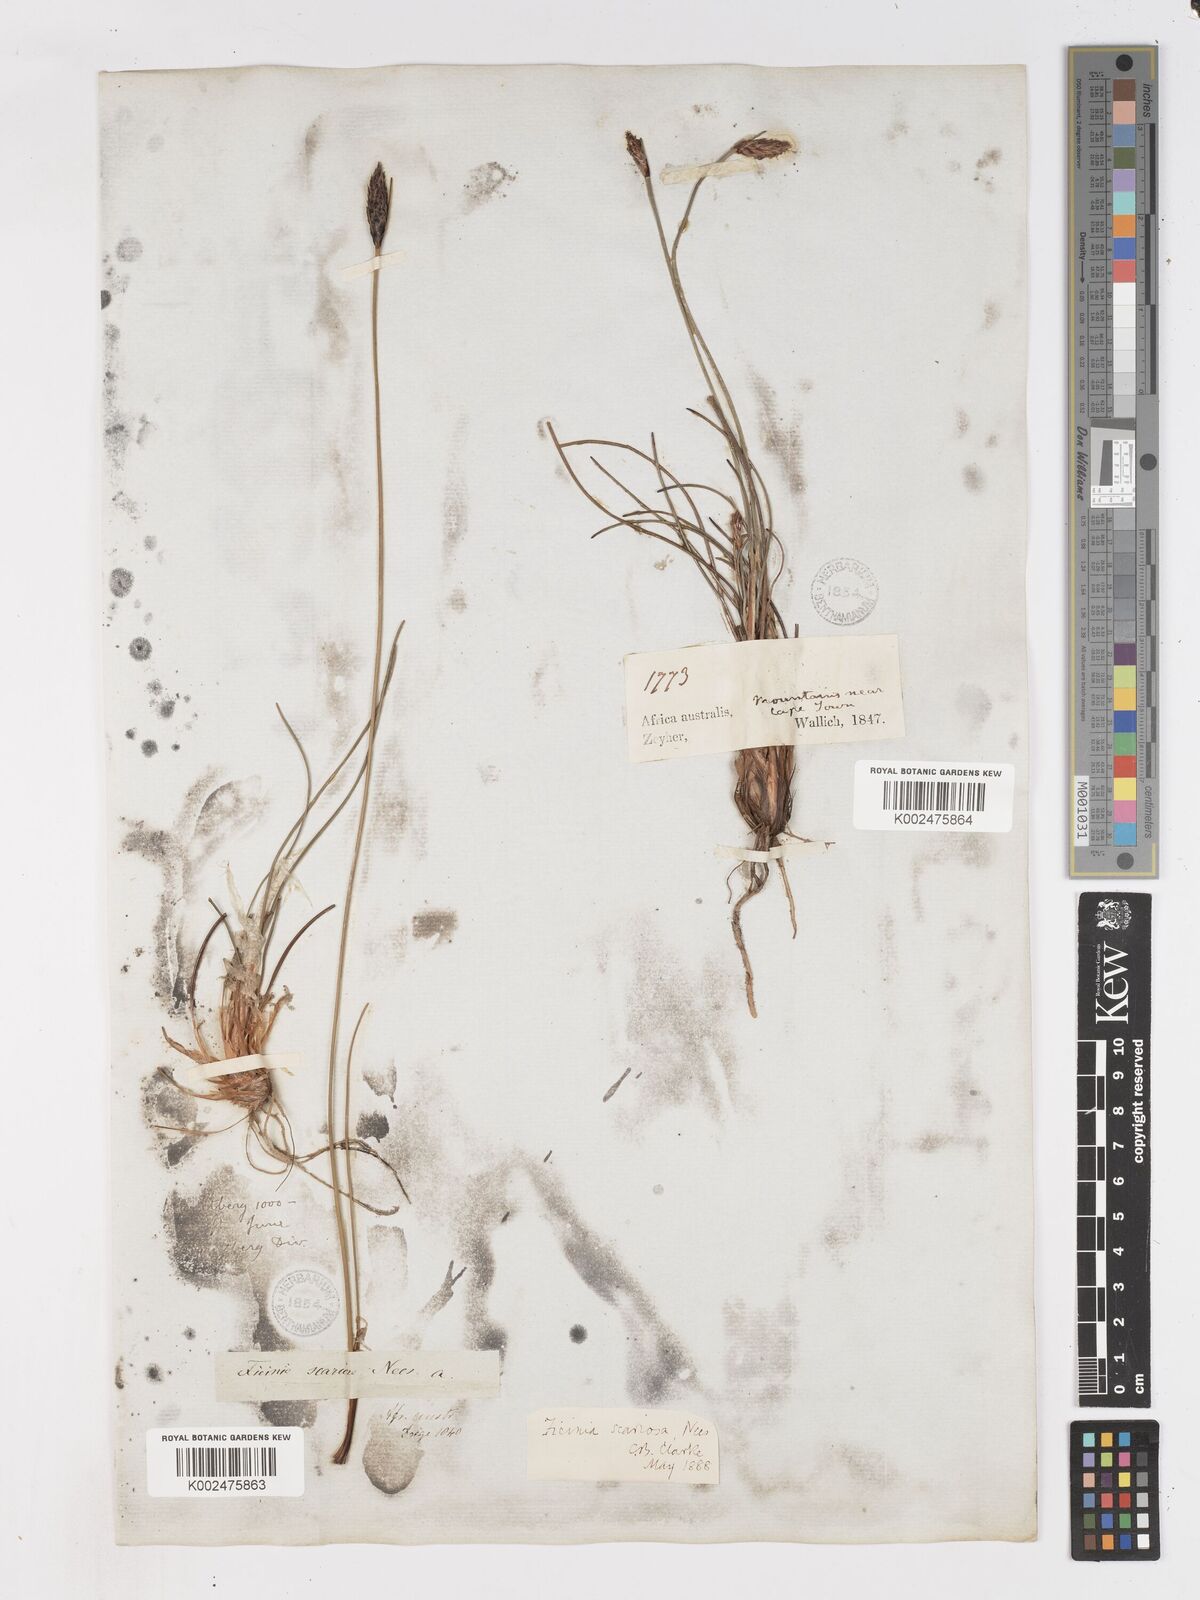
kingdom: Plantae
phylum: Tracheophyta
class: Liliopsida
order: Poales
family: Cyperaceae
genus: Ficinia
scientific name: Ficinia deusta
